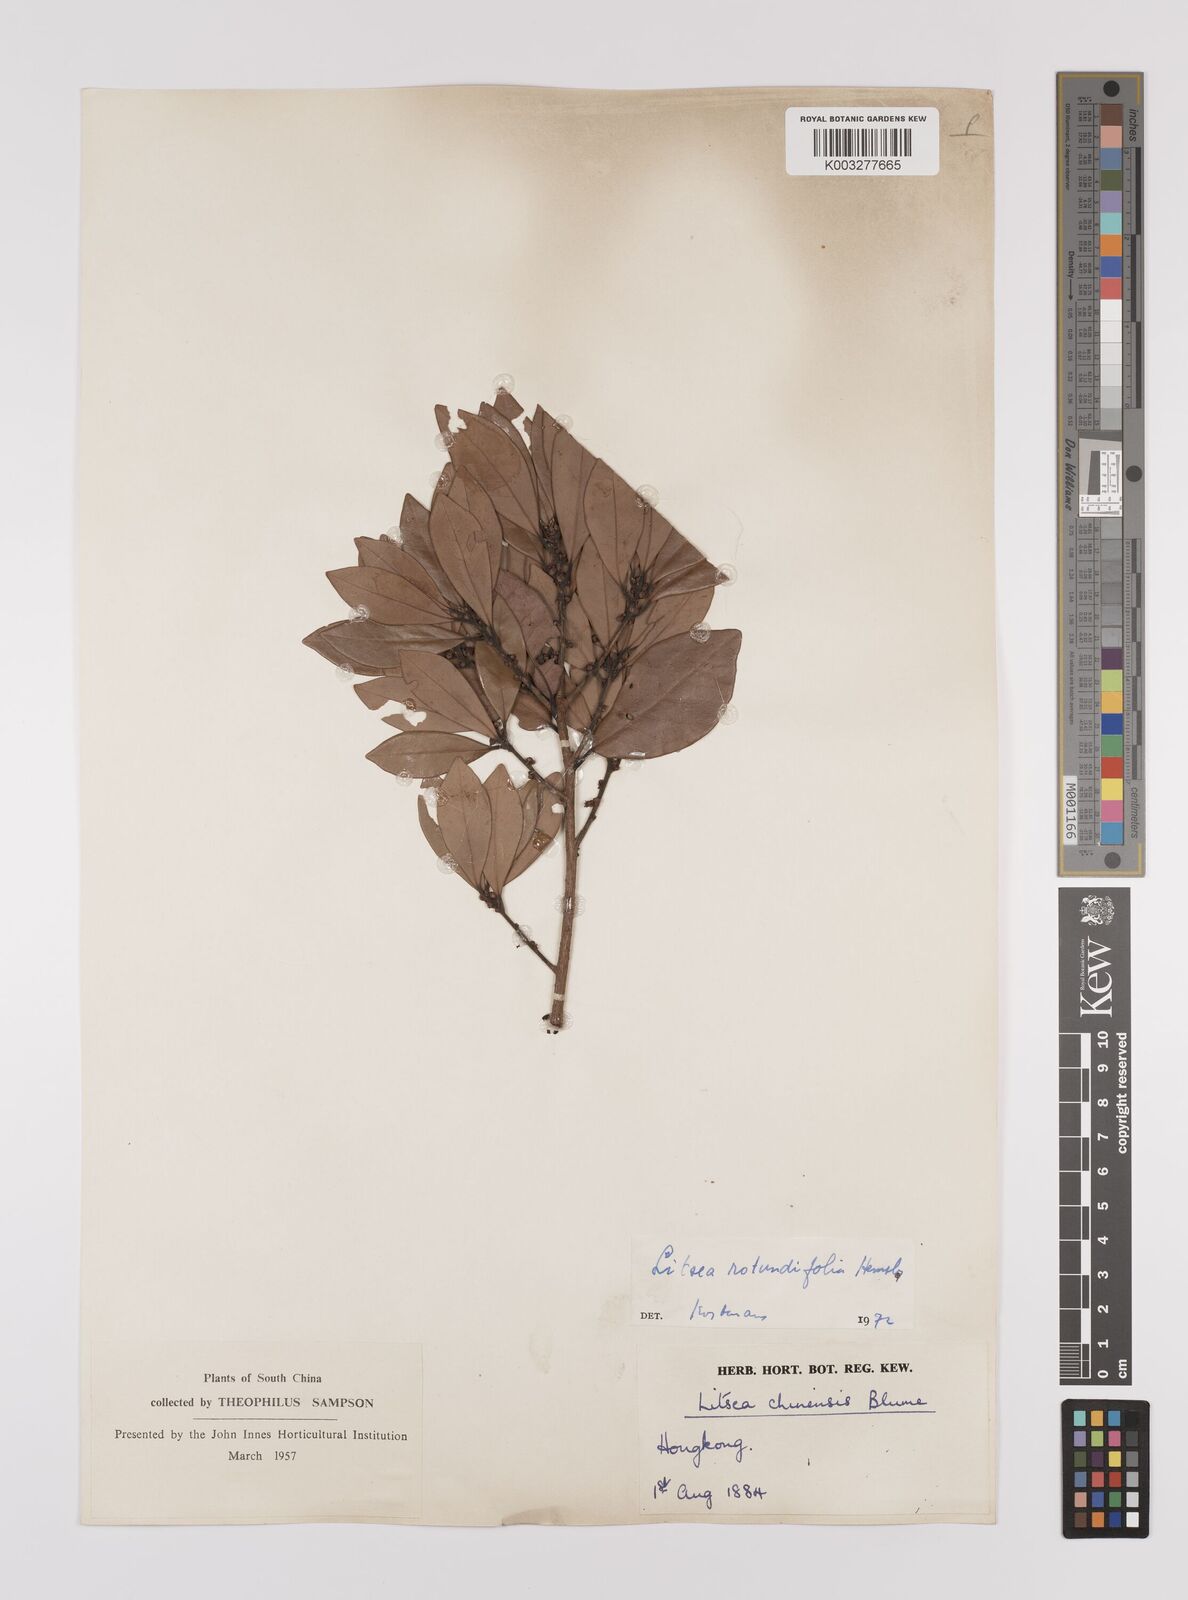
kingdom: Plantae
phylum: Tracheophyta
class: Magnoliopsida
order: Laurales
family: Lauraceae
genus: Litsea
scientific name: Litsea rotundifolia
